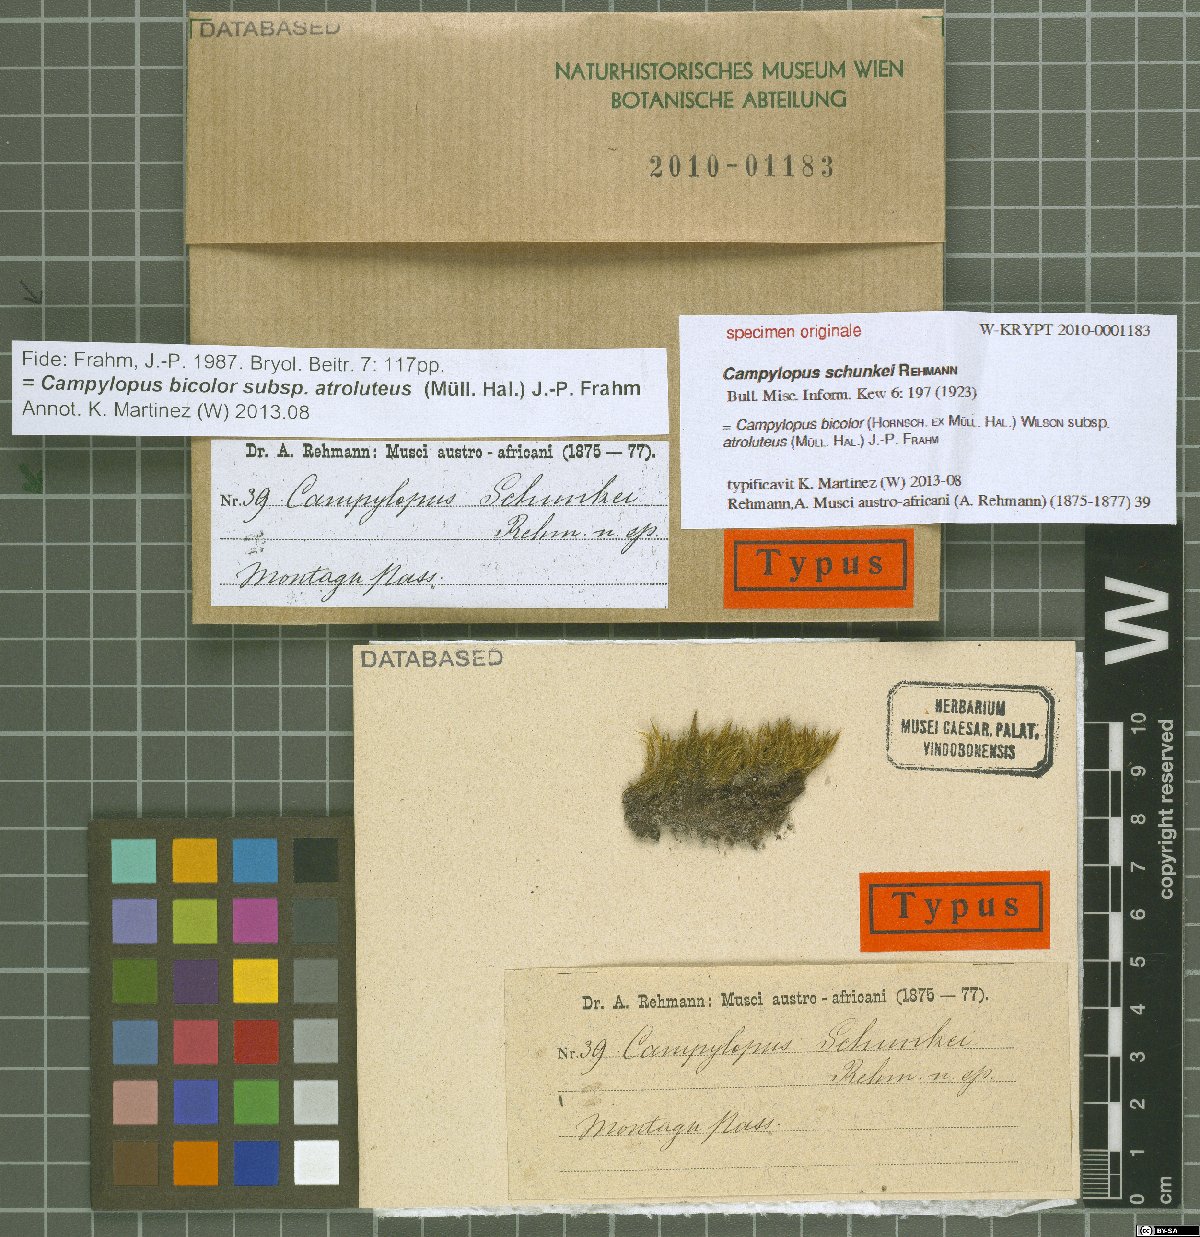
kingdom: Protozoa
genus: Campylopus
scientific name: Campylopus
